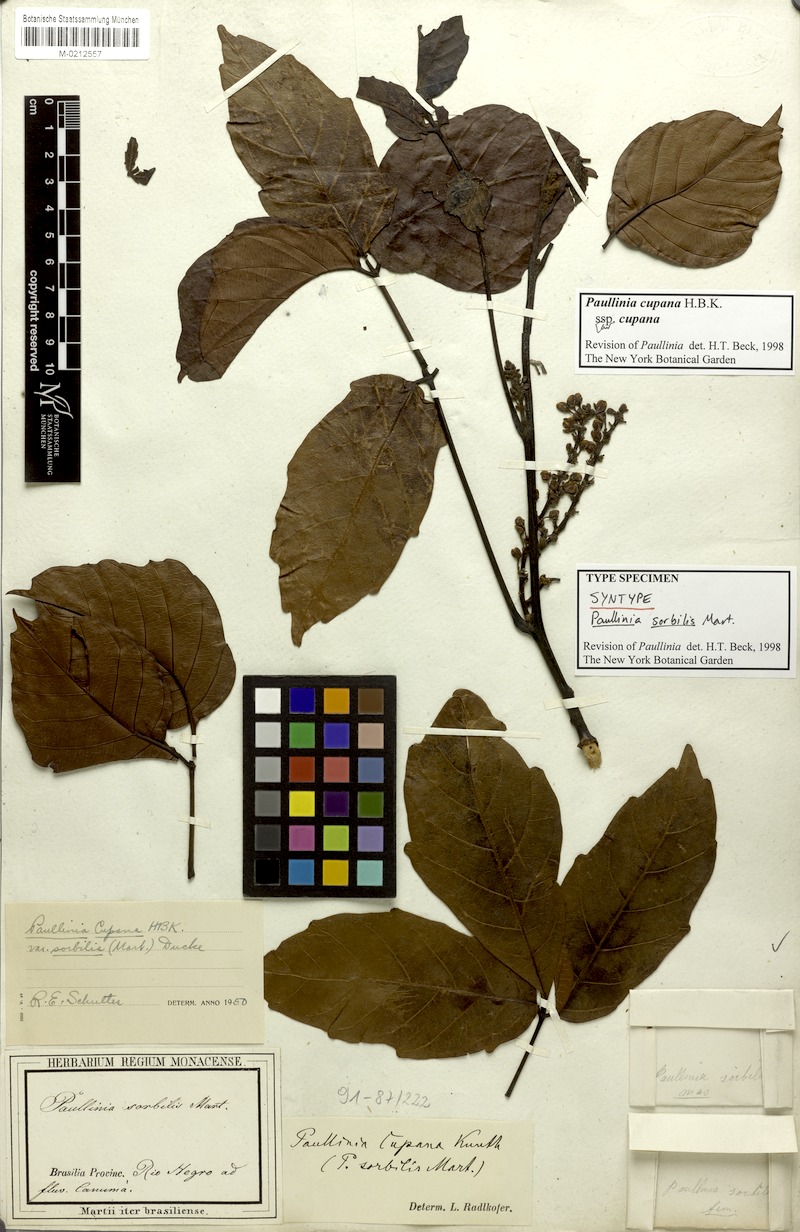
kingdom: Plantae
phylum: Tracheophyta
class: Magnoliopsida
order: Sapindales
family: Sapindaceae
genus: Paullinia
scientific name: Paullinia cupana
